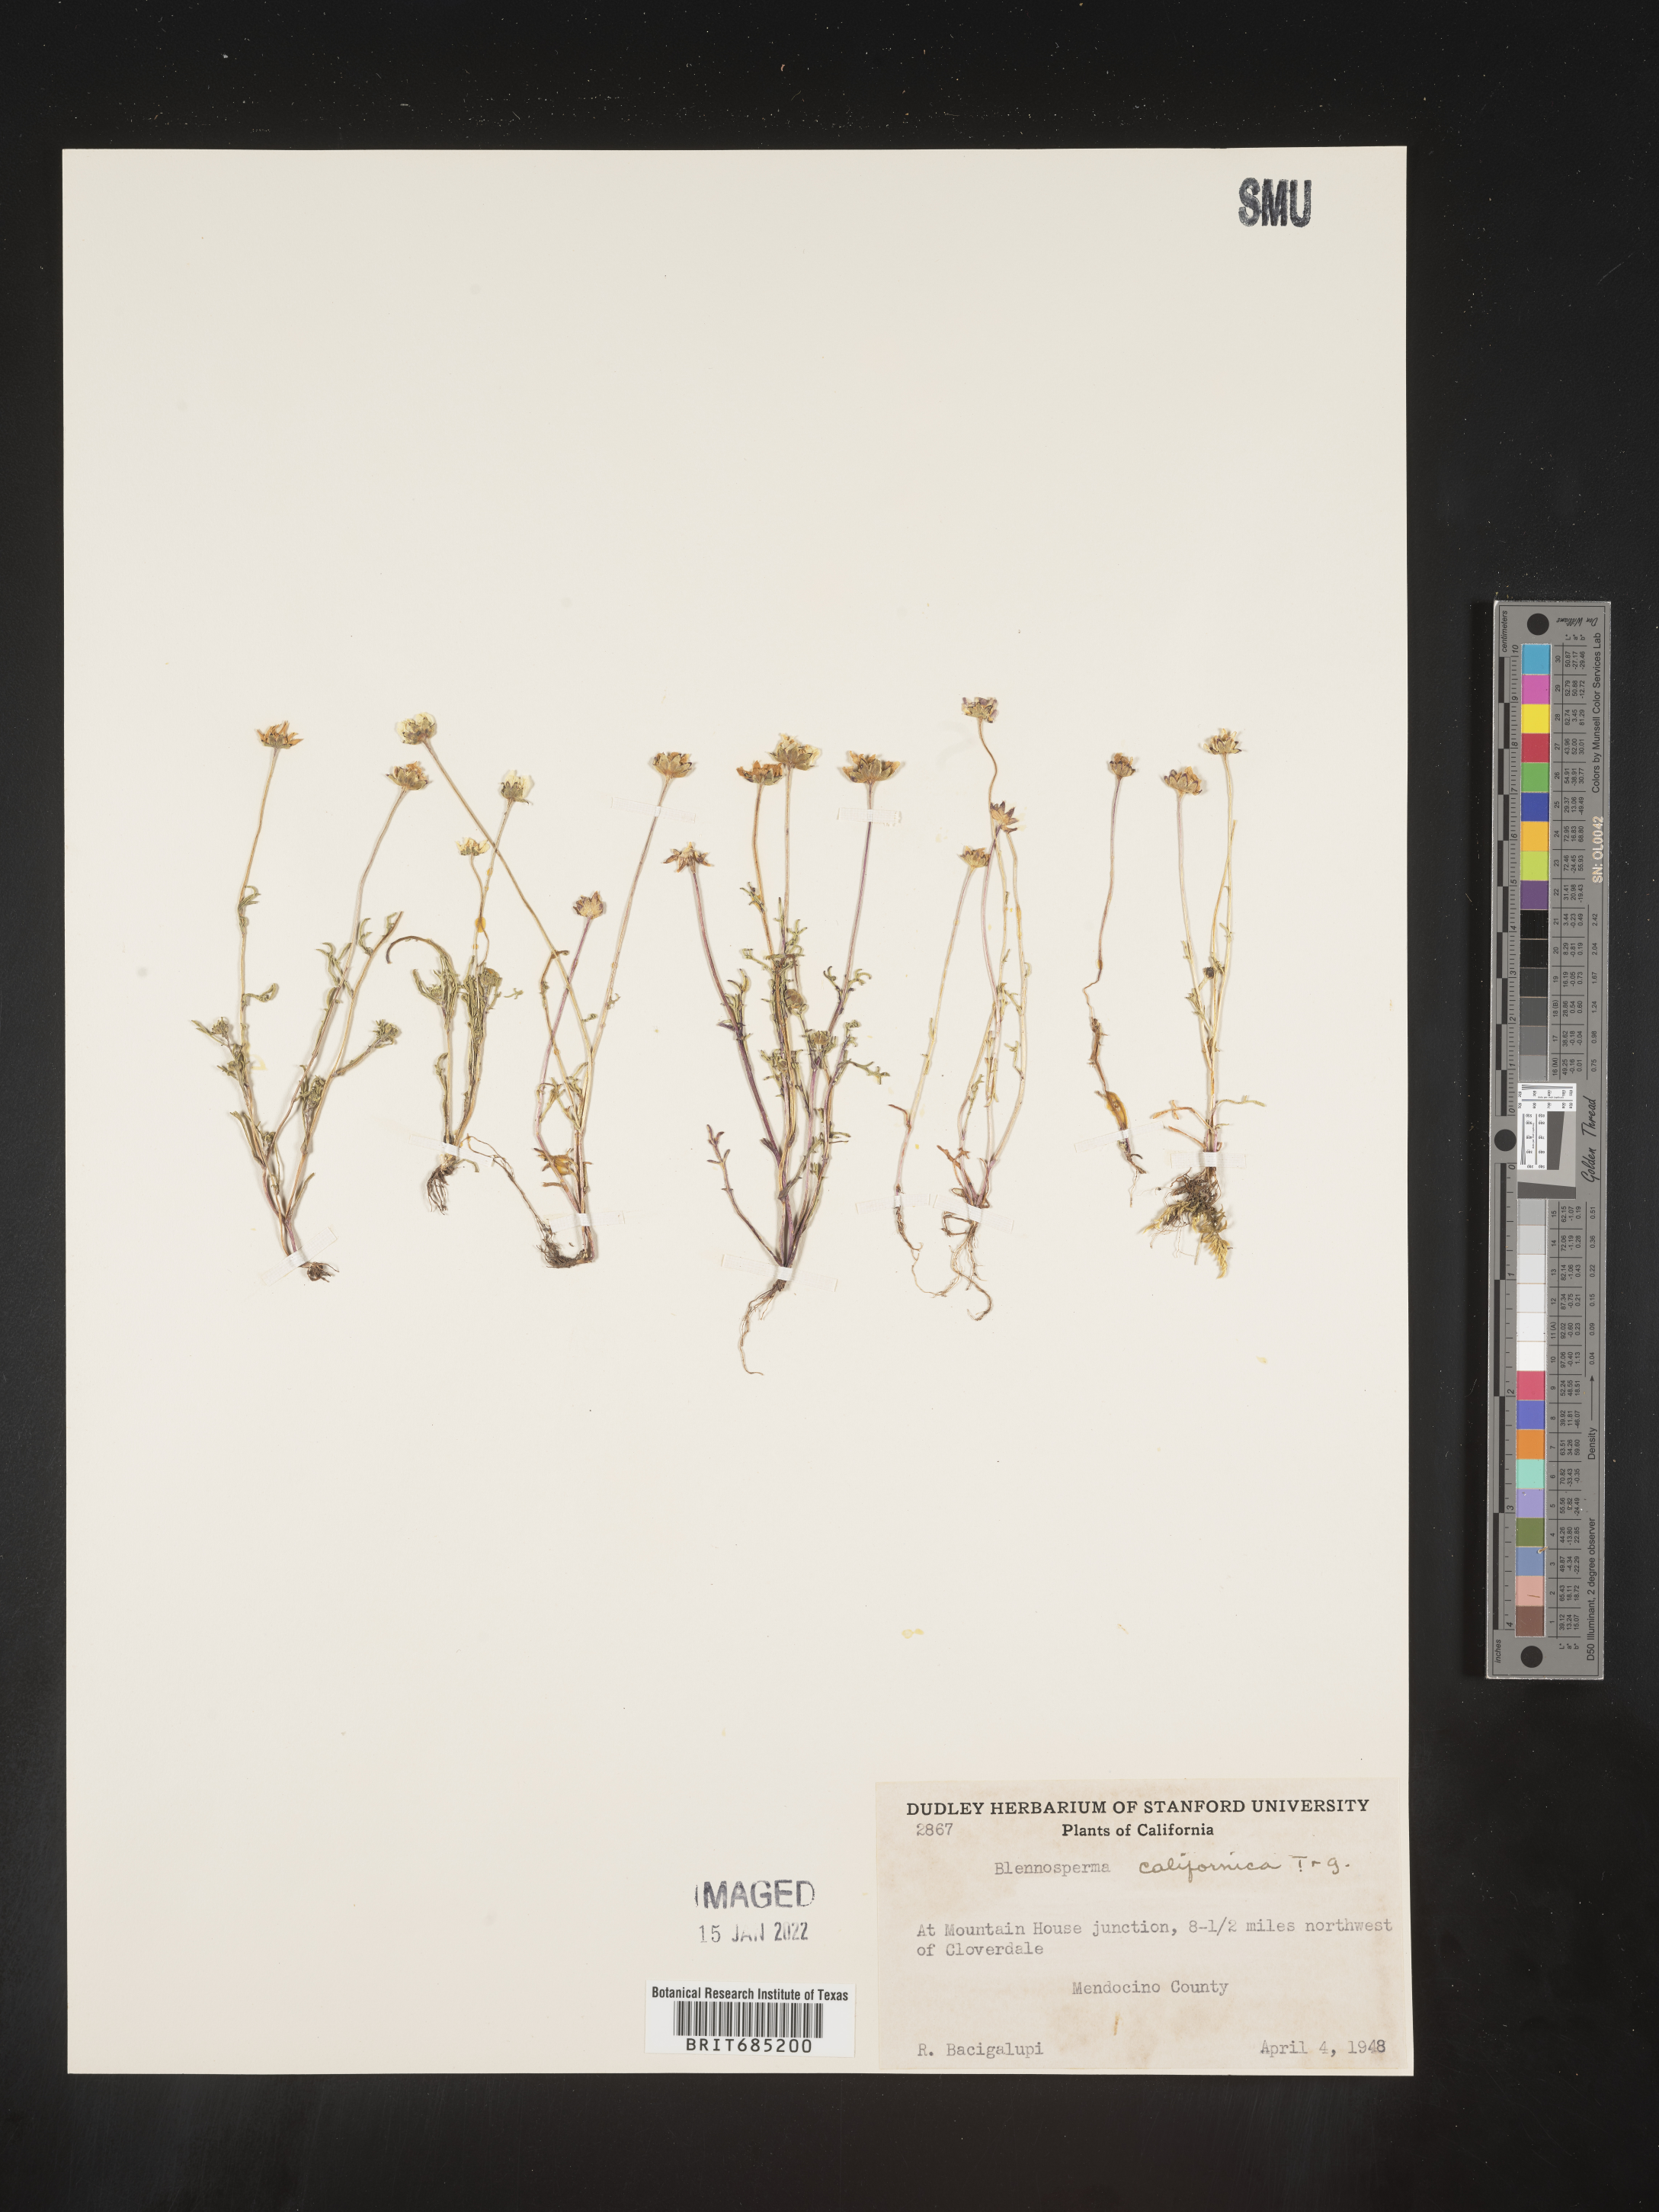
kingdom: Plantae
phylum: Tracheophyta
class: Magnoliopsida
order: Asterales
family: Asteraceae
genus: Blennosperma
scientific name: Blennosperma
